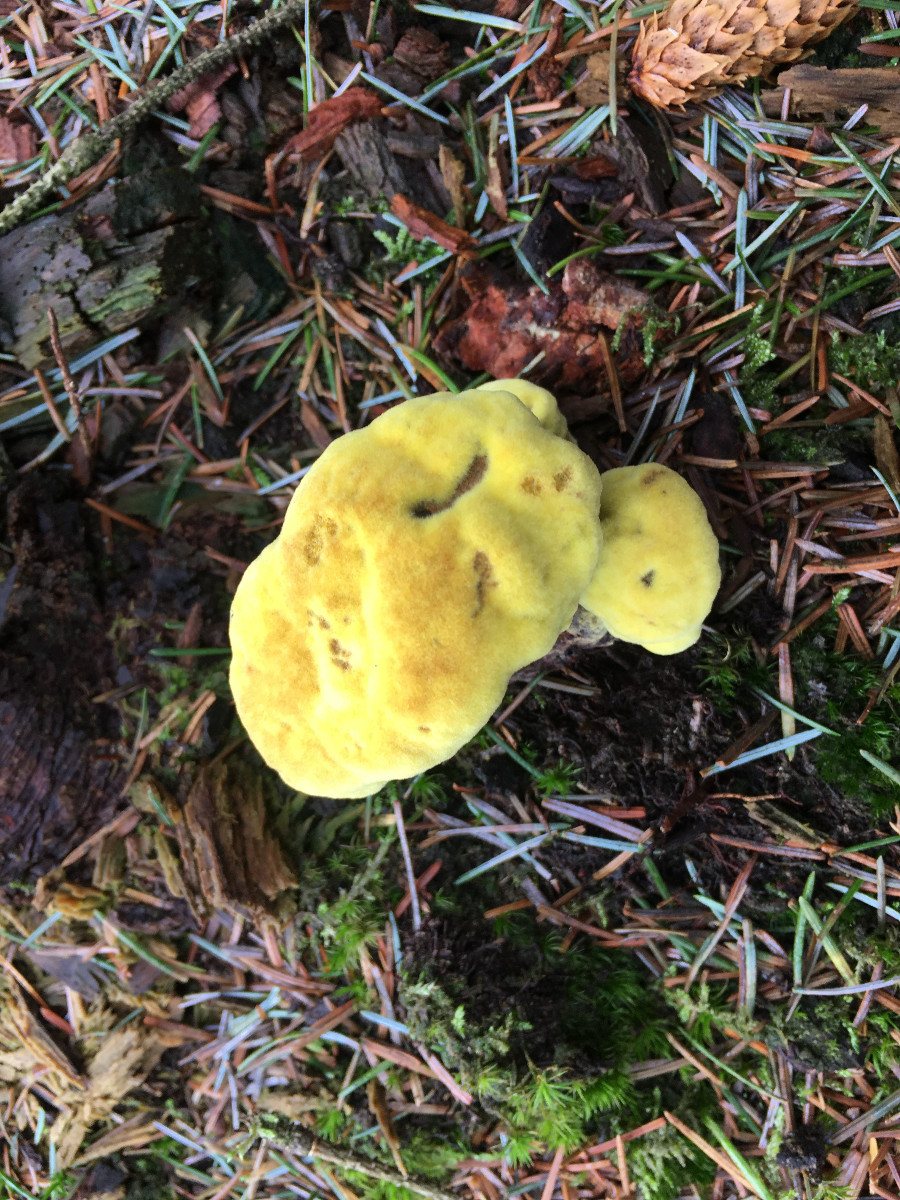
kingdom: Fungi
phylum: Basidiomycota
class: Agaricomycetes
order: Polyporales
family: Laetiporaceae
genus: Phaeolus
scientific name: Phaeolus schweinitzii
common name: brunporesvamp
